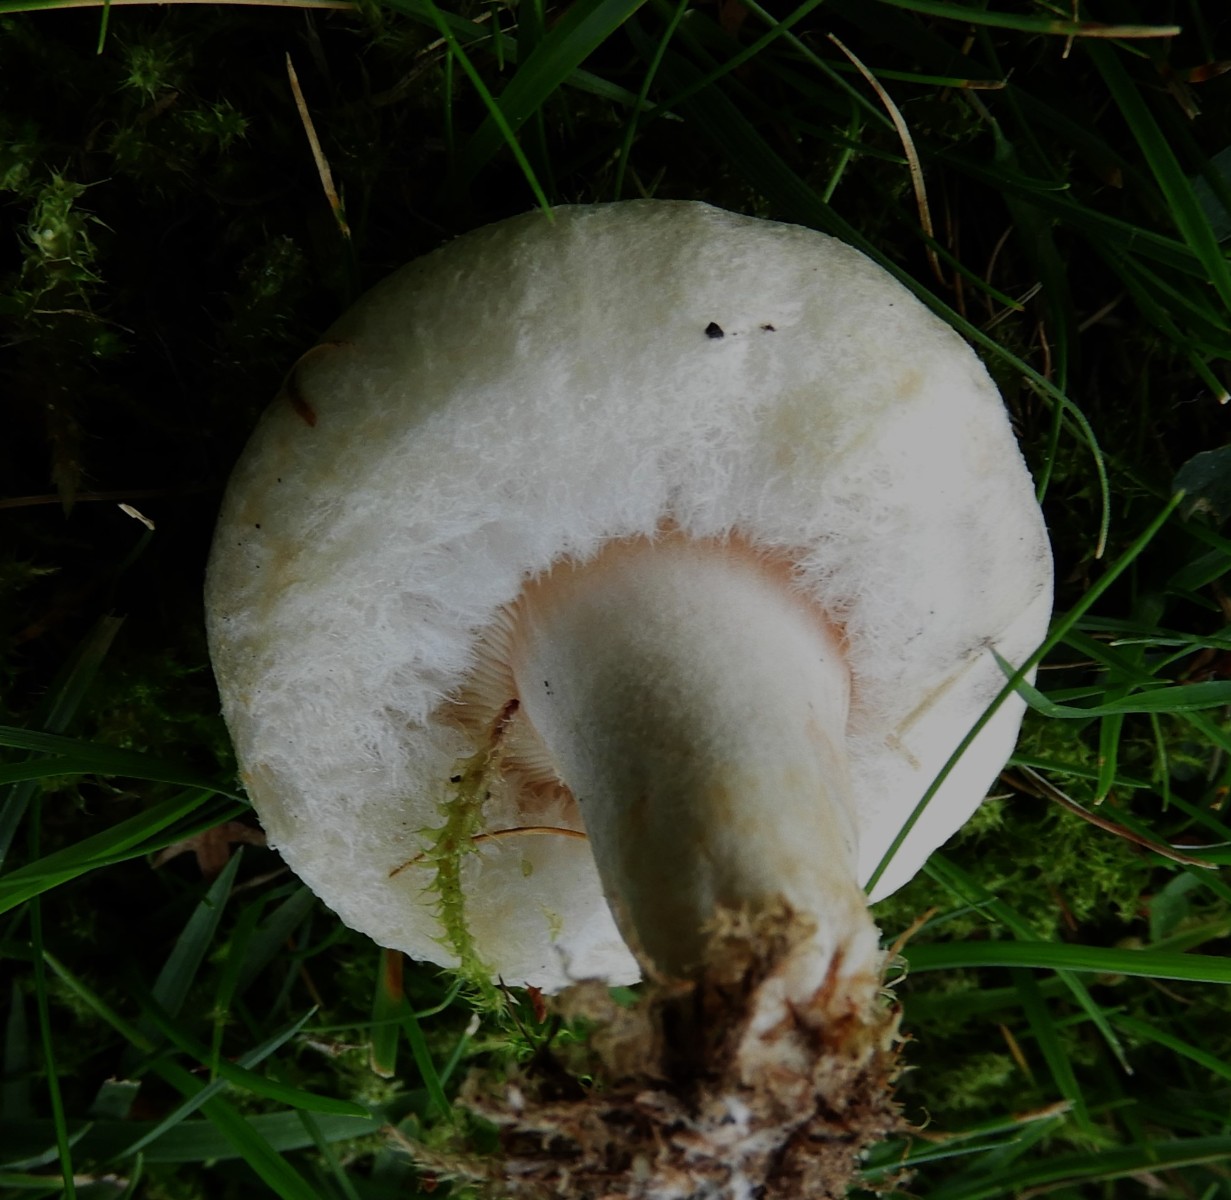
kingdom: Fungi
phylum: Basidiomycota
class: Agaricomycetes
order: Russulales
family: Russulaceae
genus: Lactarius
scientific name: Lactarius pubescens
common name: dunet mælkehat
